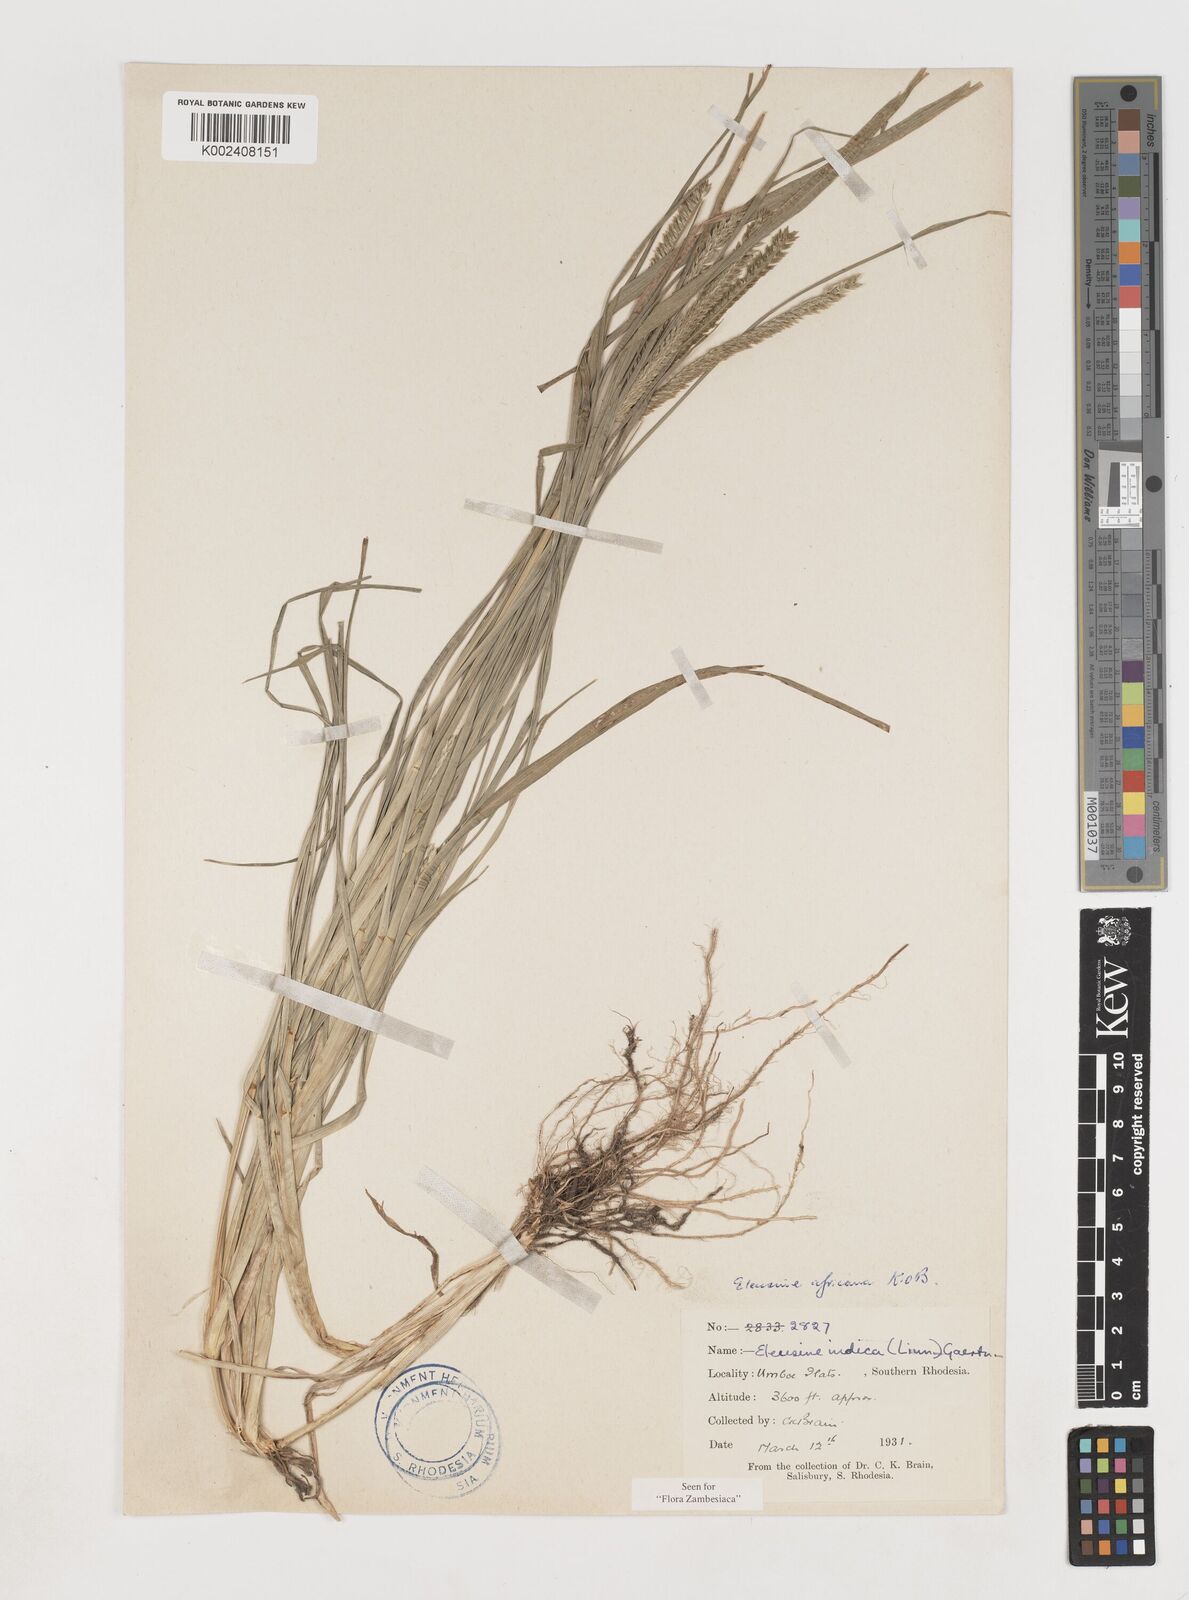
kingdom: Plantae
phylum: Tracheophyta
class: Liliopsida
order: Poales
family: Poaceae
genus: Eleusine
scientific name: Eleusine africana
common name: Wild african finger millet
